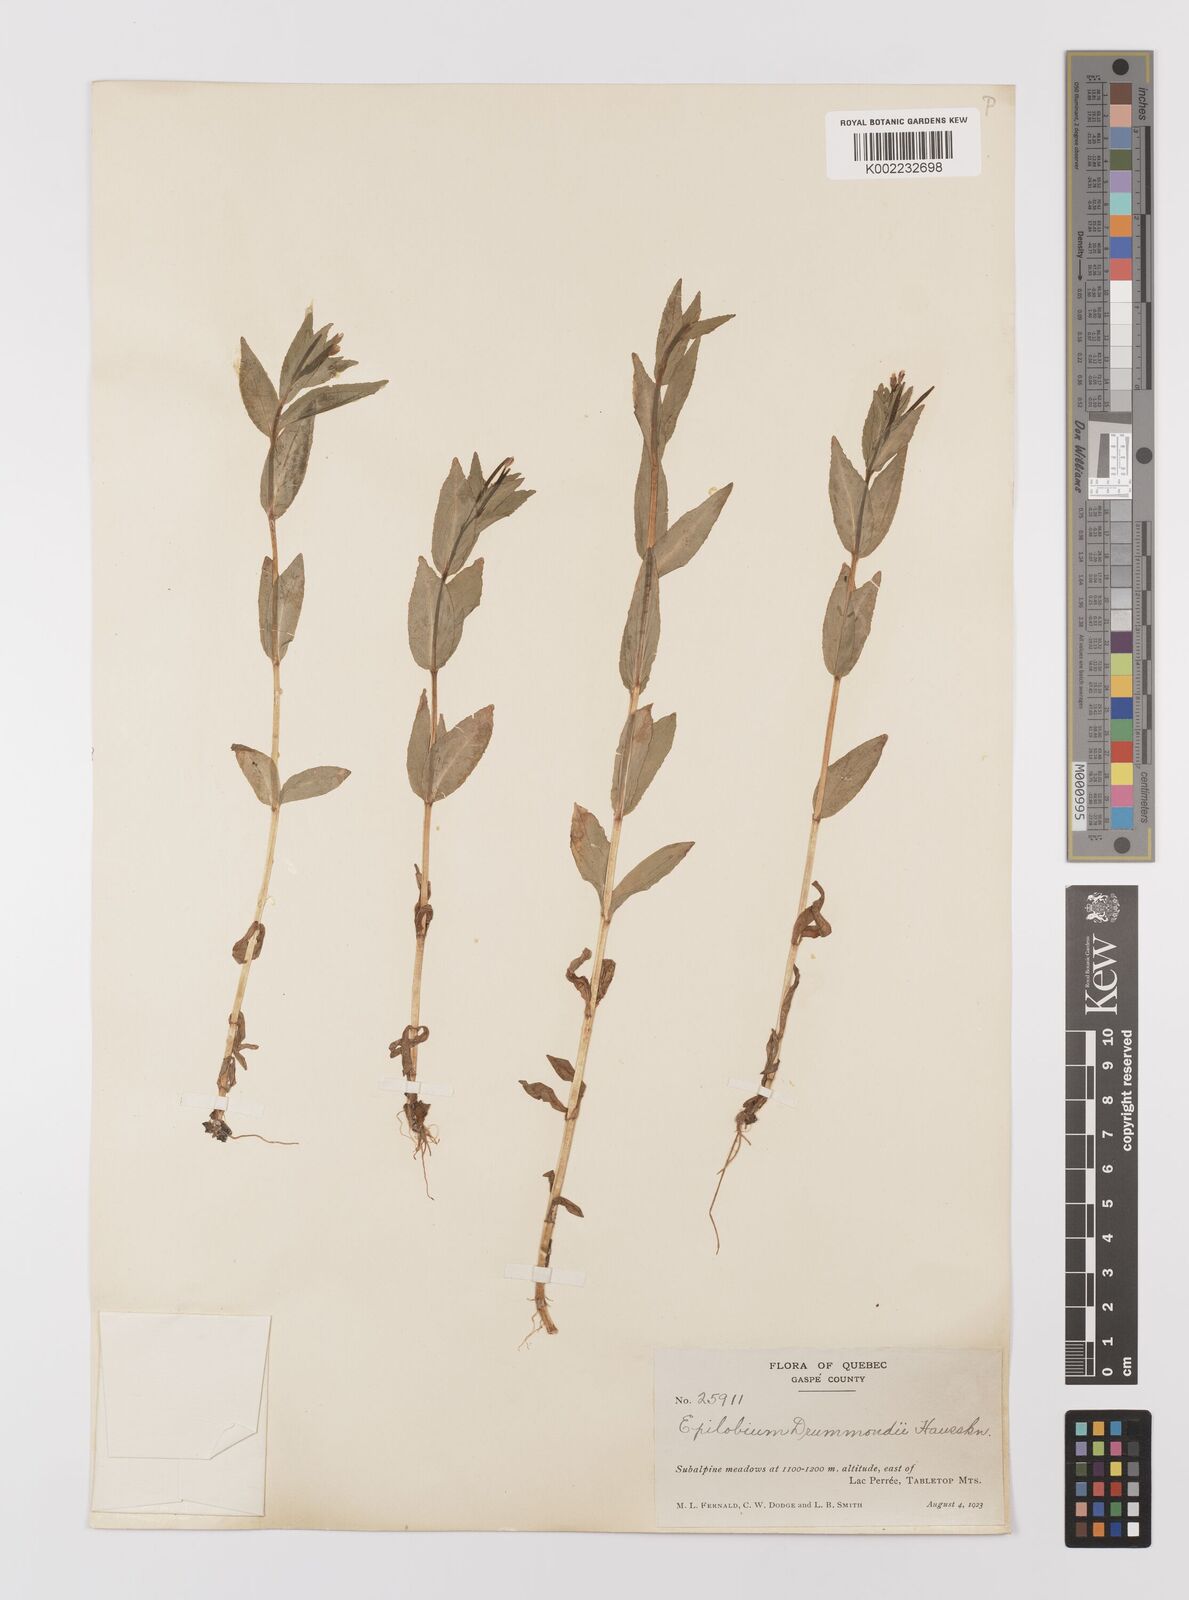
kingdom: Plantae
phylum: Tracheophyta
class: Magnoliopsida
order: Myrtales
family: Onagraceae
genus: Epilobium
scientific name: Epilobium
